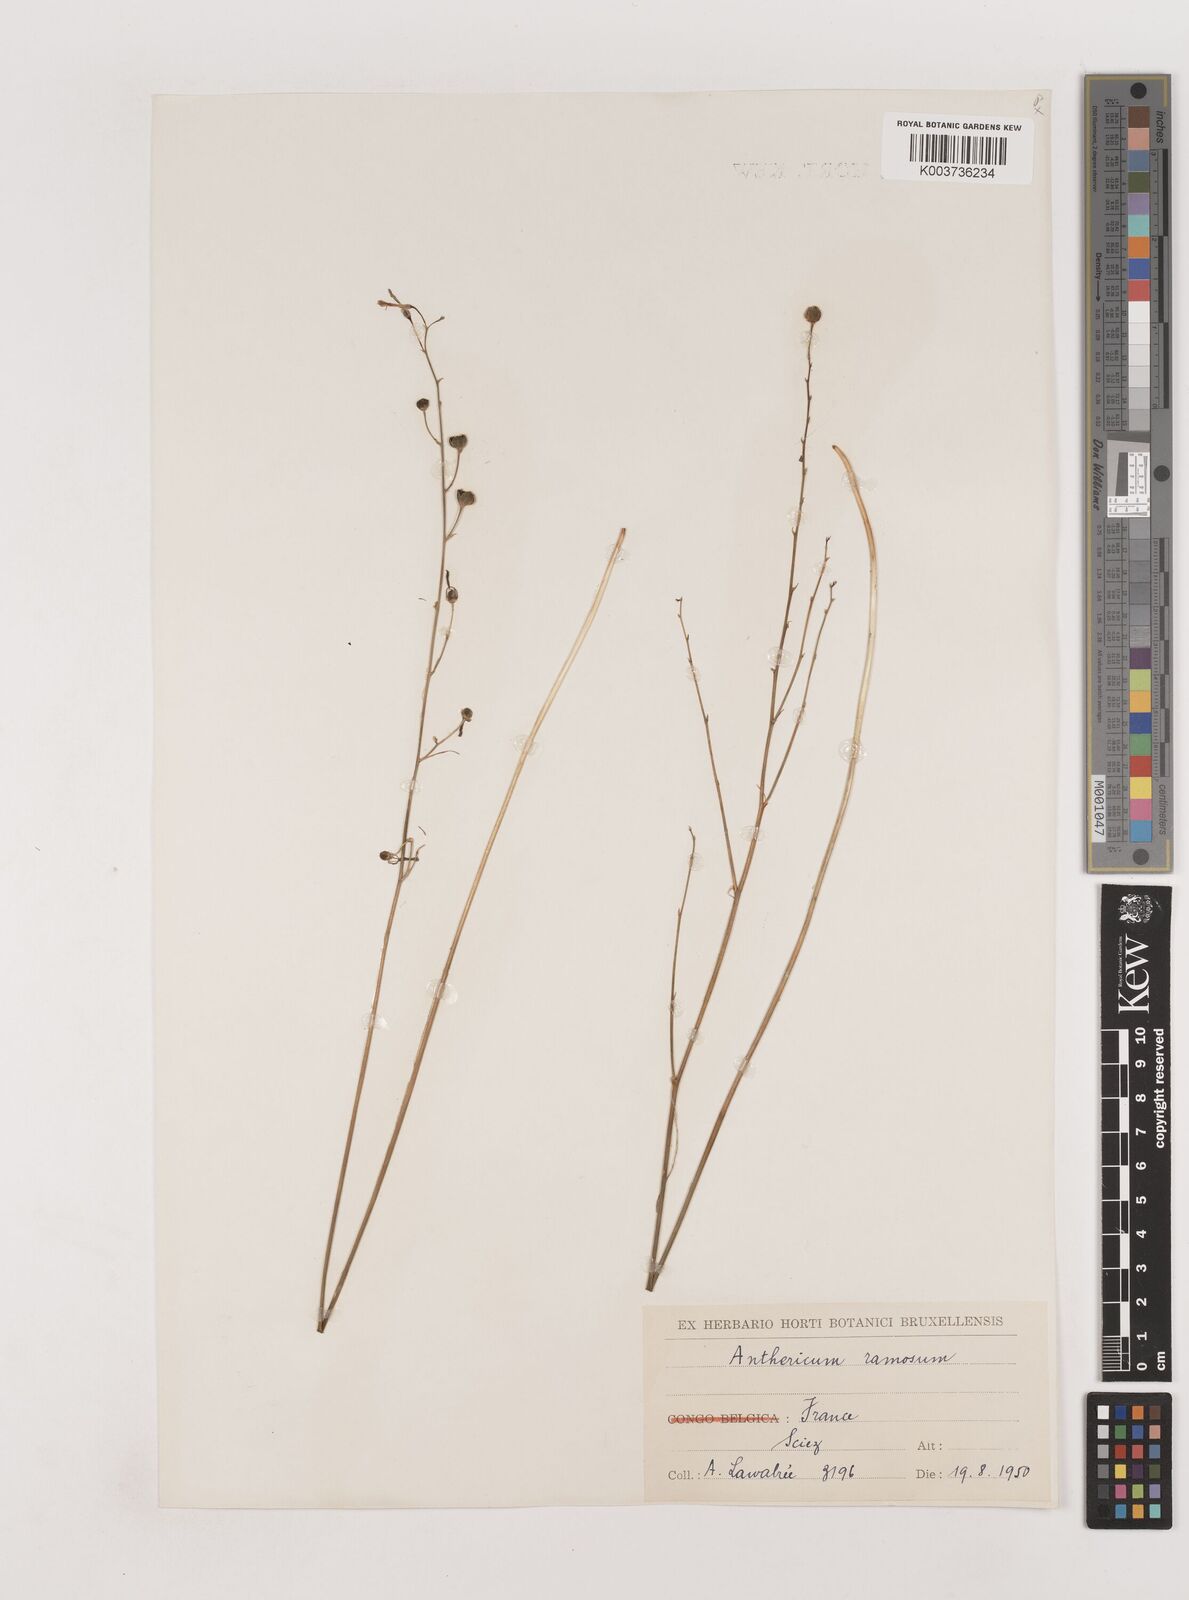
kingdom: Plantae
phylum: Tracheophyta
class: Liliopsida
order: Asparagales
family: Asparagaceae
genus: Anthericum
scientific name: Anthericum ramosum
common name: Branched st. bernard's-lily
